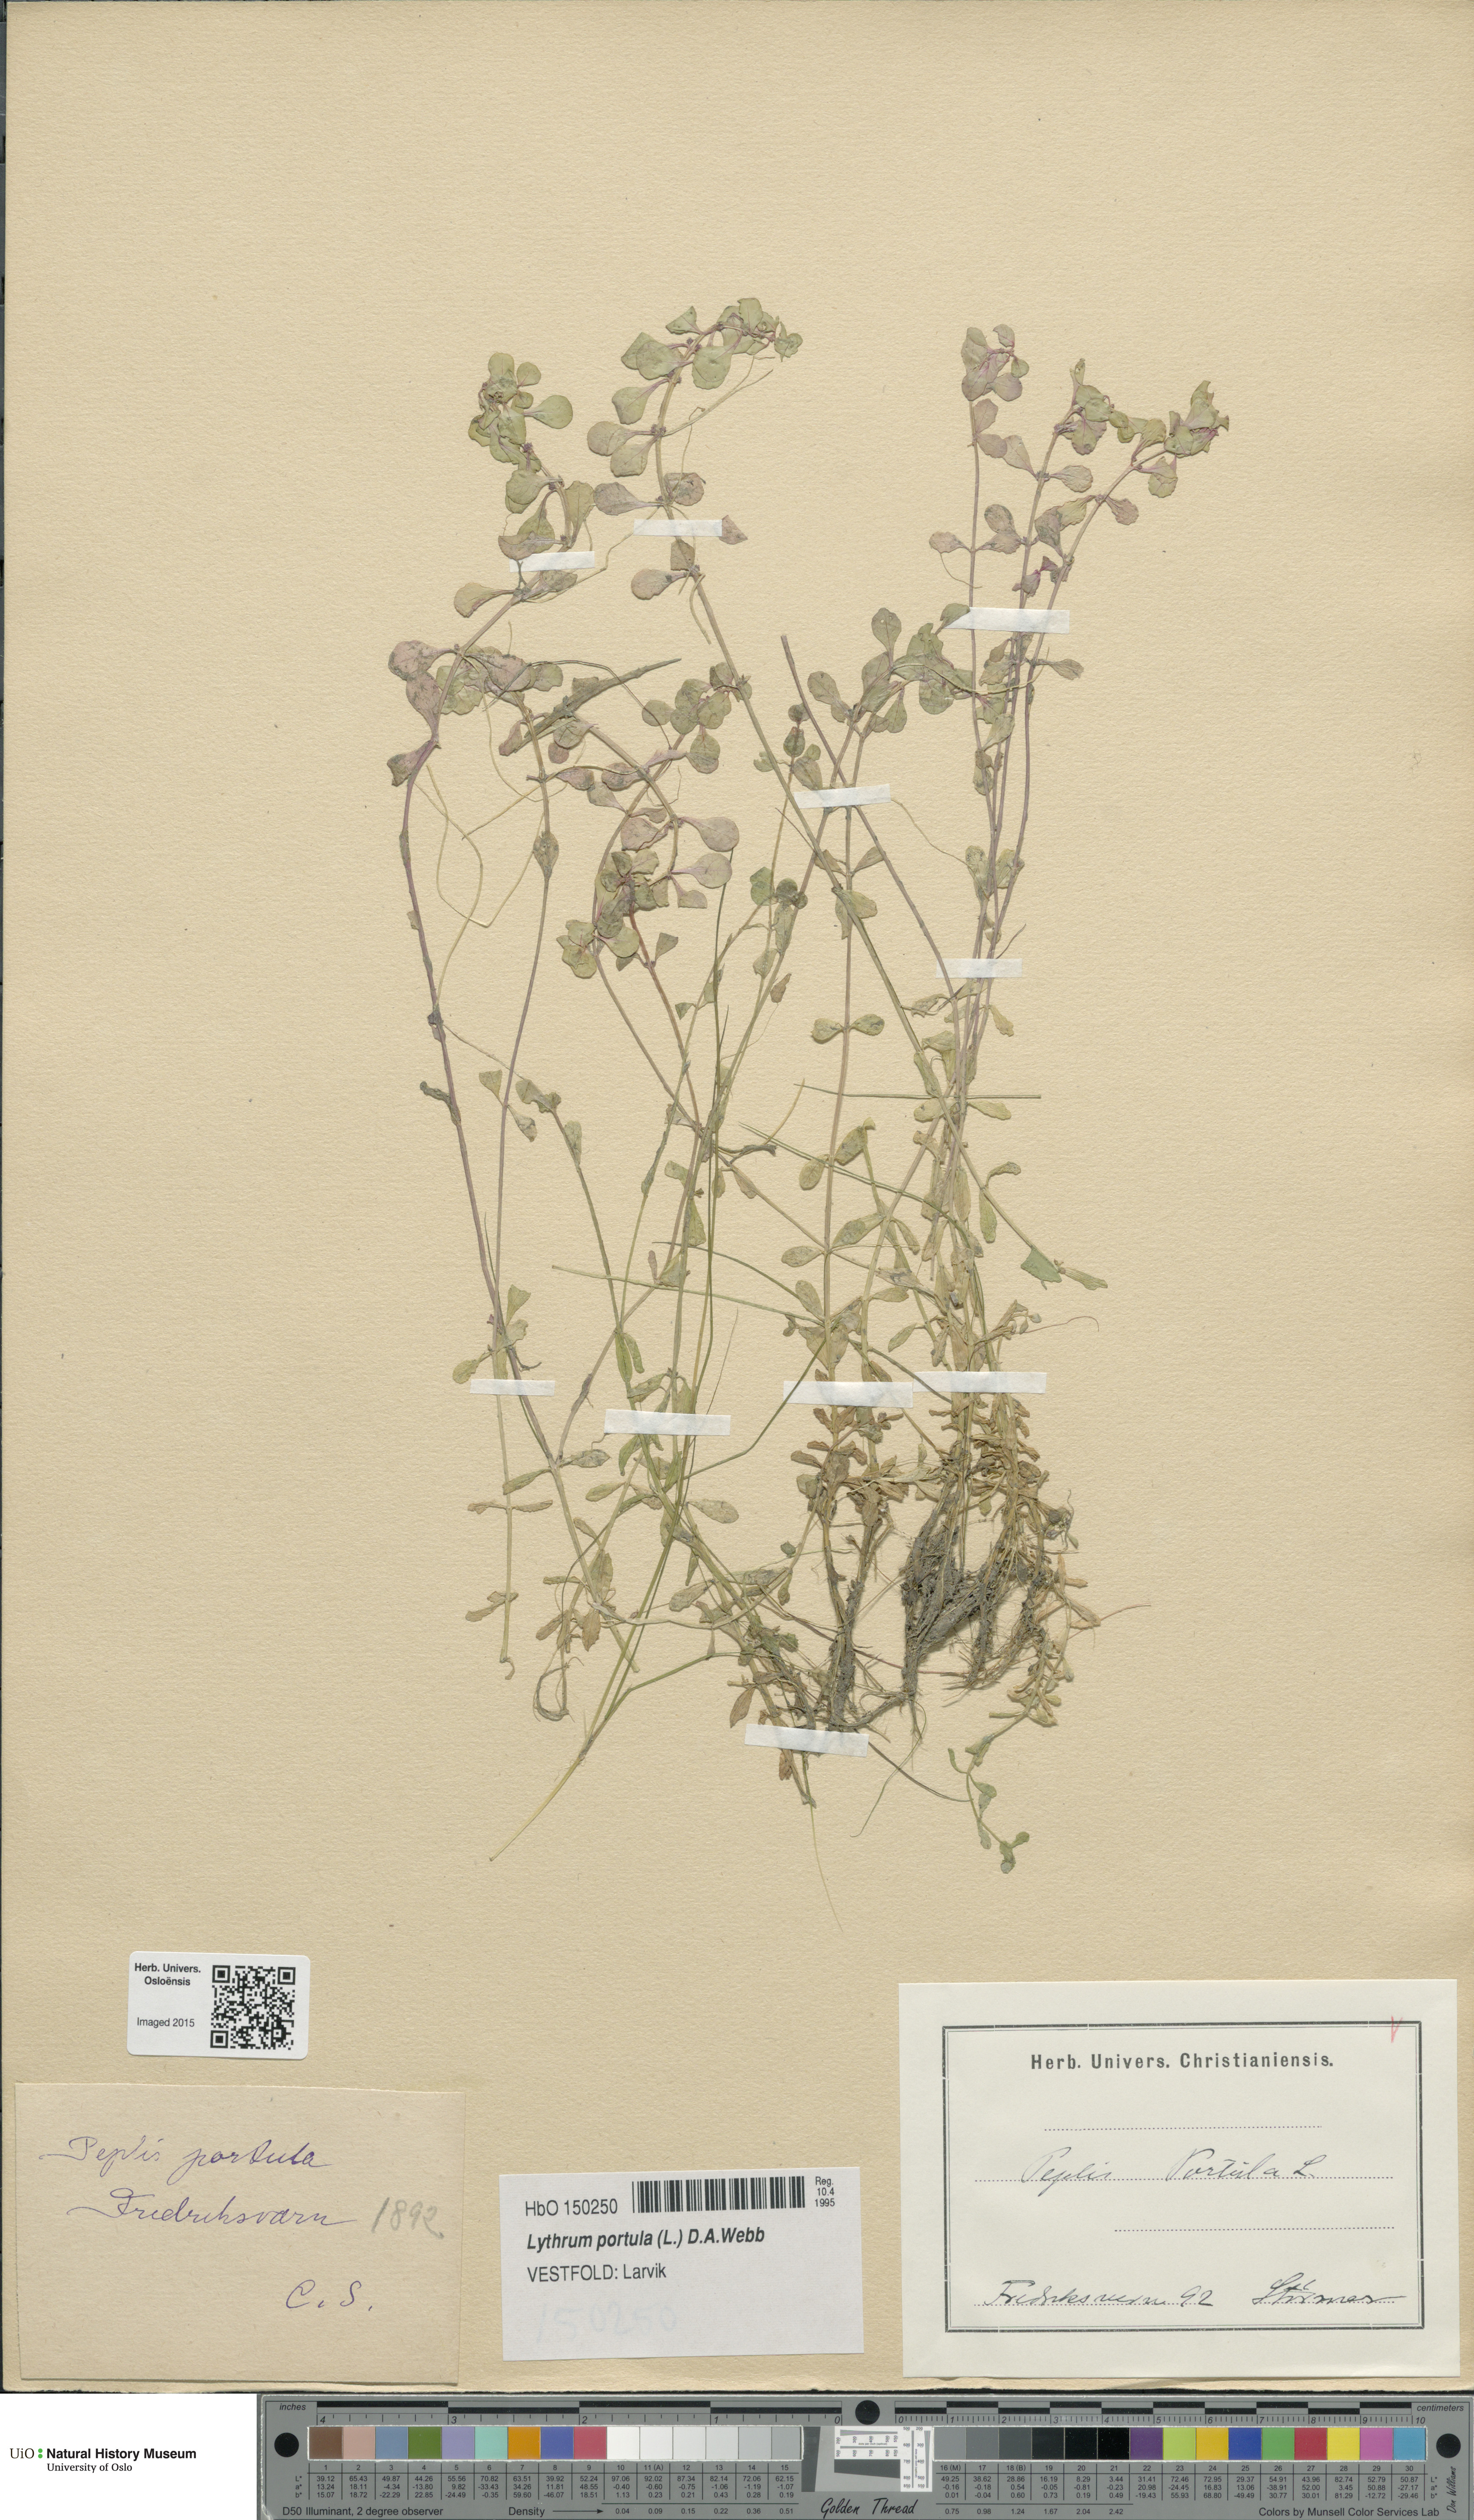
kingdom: Plantae
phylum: Tracheophyta
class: Magnoliopsida
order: Myrtales
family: Lythraceae
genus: Lythrum
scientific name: Lythrum portula
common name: Water purslane
